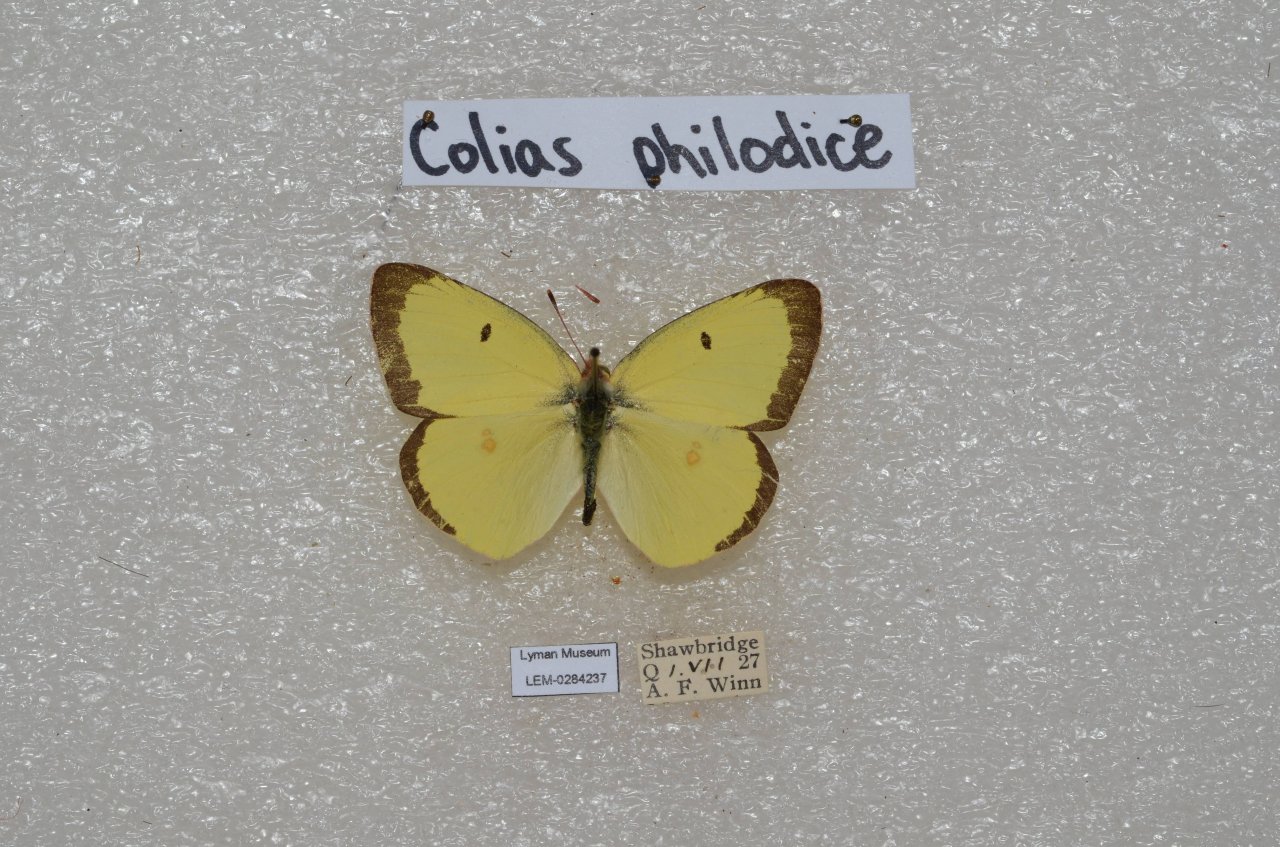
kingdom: Animalia
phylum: Arthropoda
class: Insecta
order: Lepidoptera
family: Pieridae
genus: Colias
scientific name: Colias philodice
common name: Clouded Sulphur
